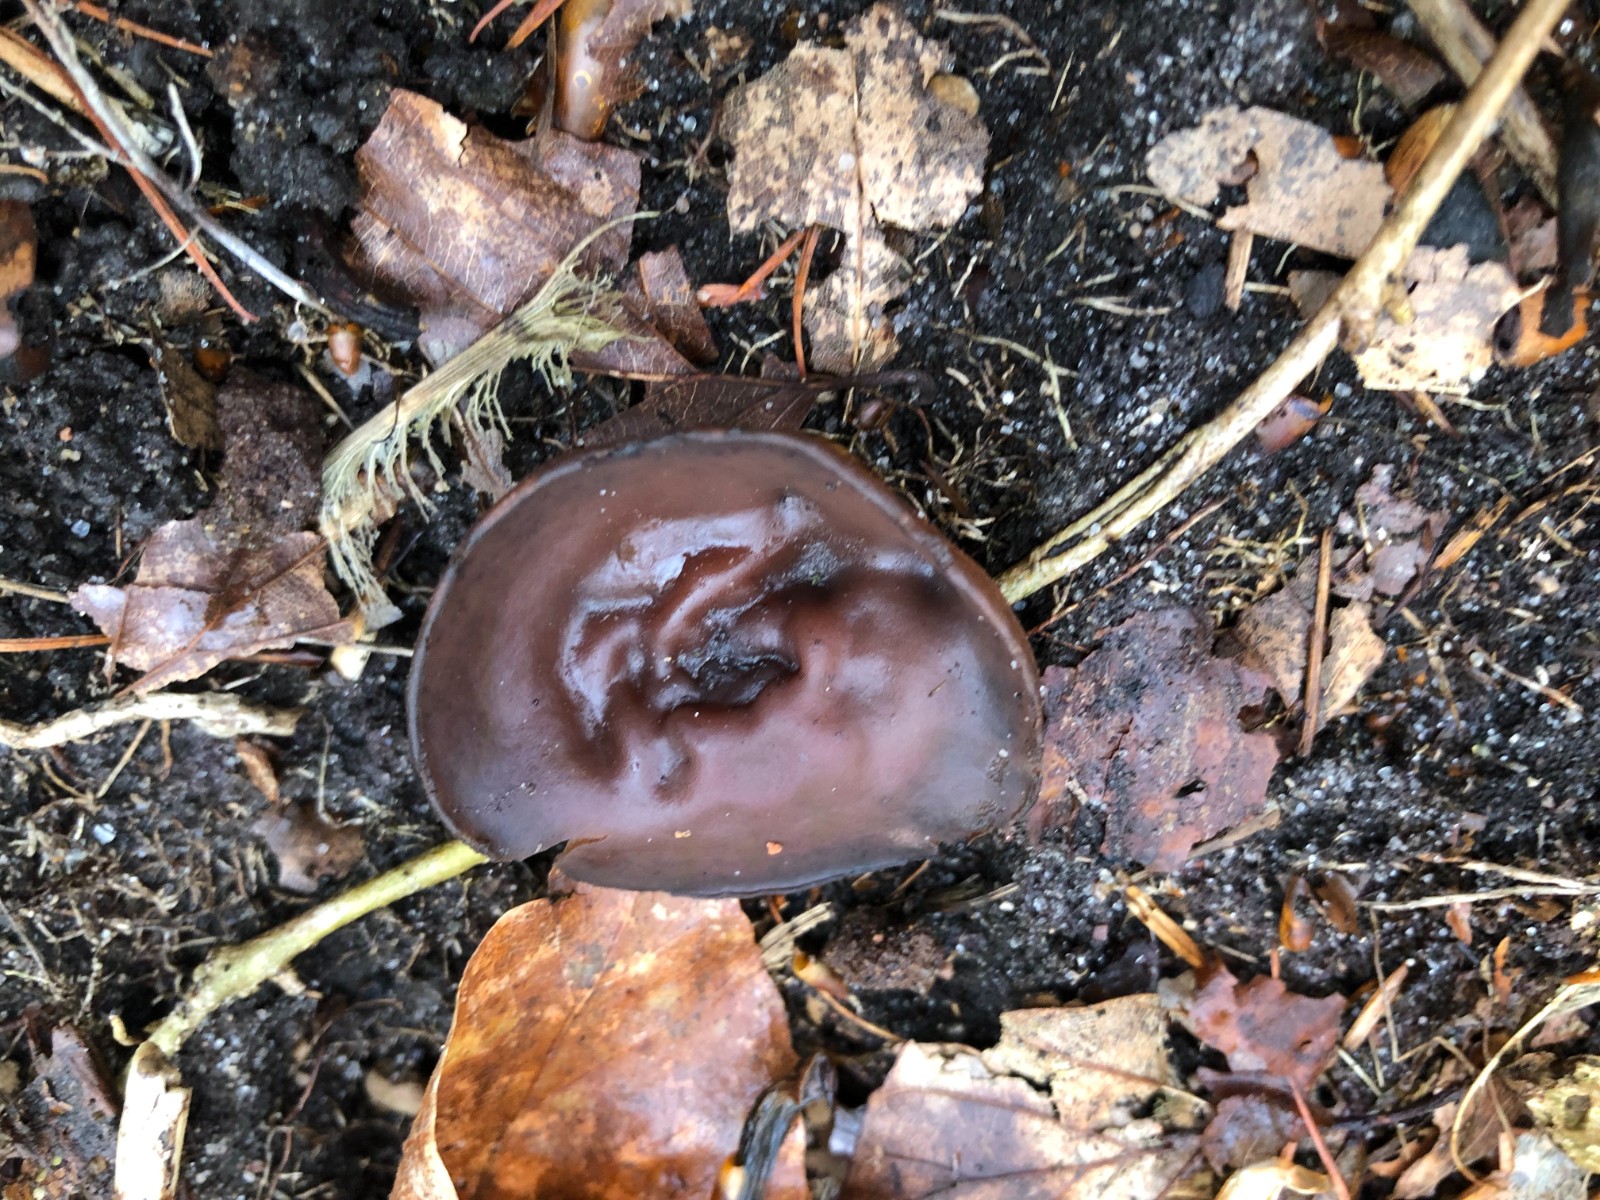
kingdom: Fungi
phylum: Ascomycota
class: Leotiomycetes
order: Helotiales
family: Sclerotiniaceae
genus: Dumontinia
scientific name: Dumontinia tuberosa
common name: anemone-knoldskive
